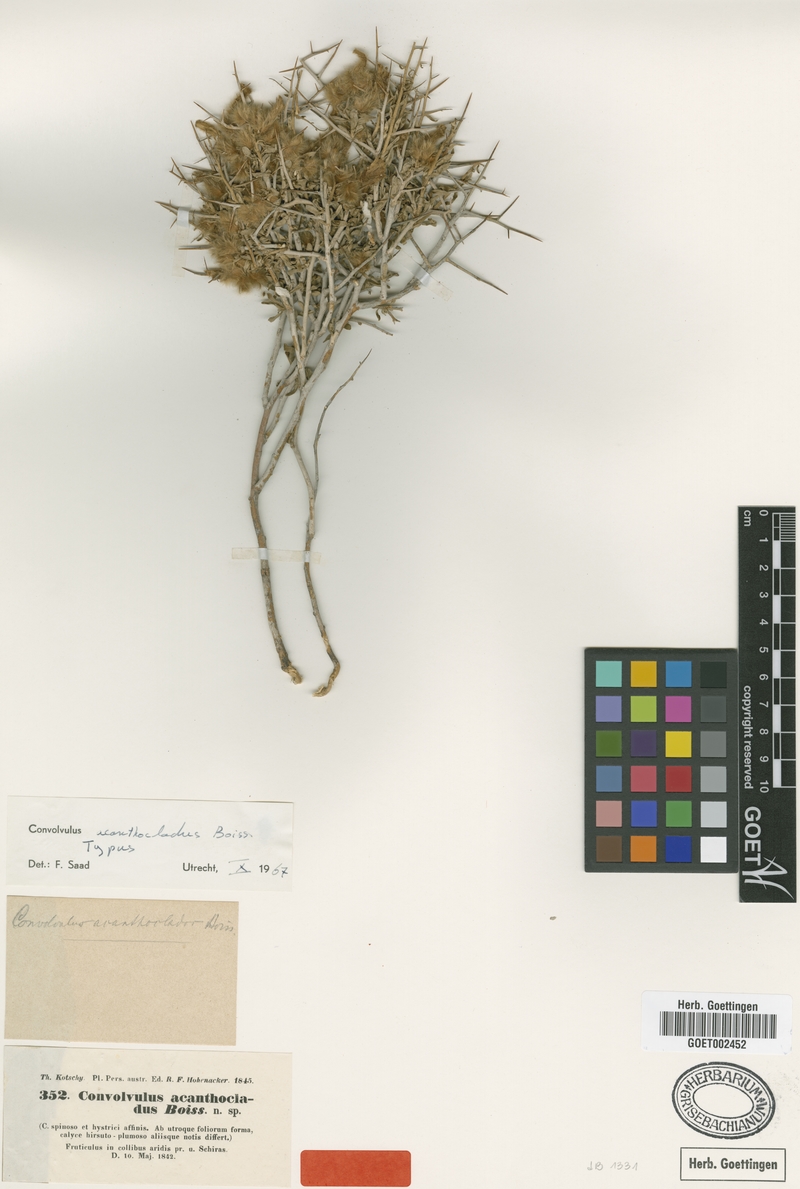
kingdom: Plantae
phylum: Tracheophyta
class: Magnoliopsida
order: Solanales
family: Convolvulaceae
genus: Convolvulus
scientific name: Convolvulus acanthocladus
